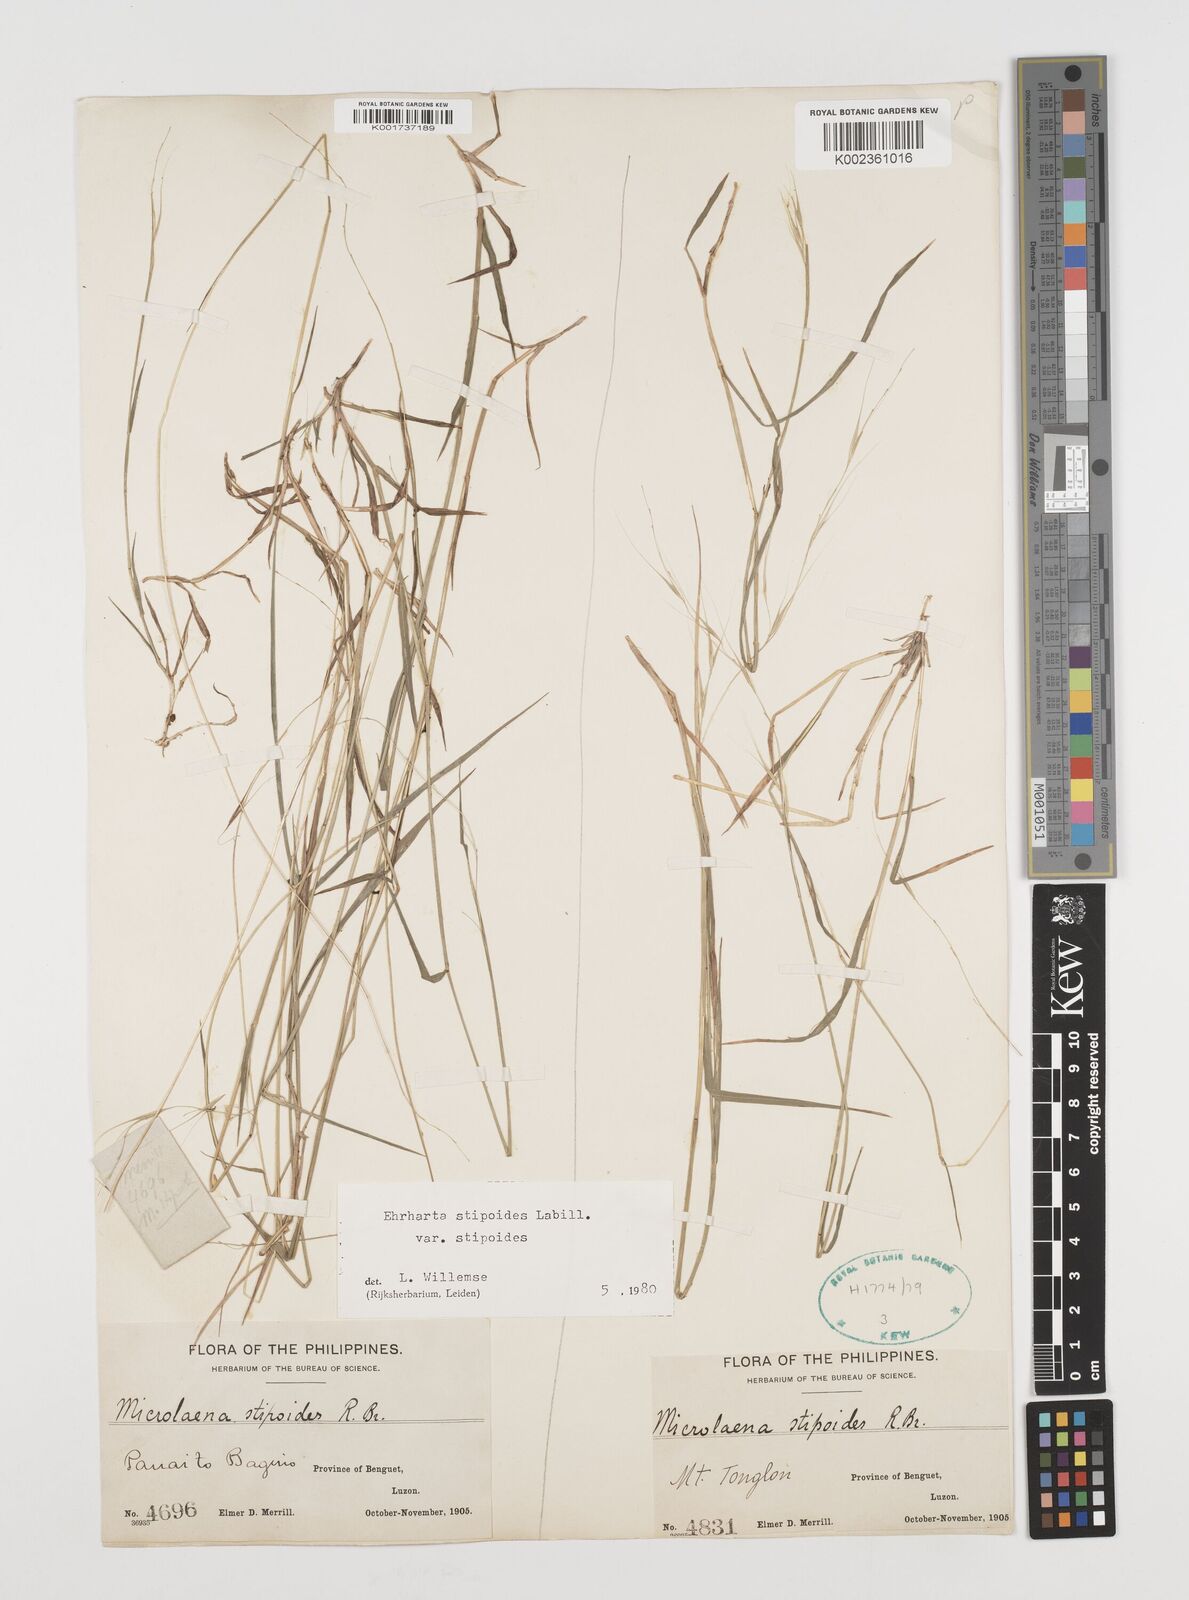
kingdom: Plantae
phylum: Tracheophyta
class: Liliopsida
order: Poales
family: Poaceae
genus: Microlaena
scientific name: Microlaena stipoides
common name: Meadow ricegrass
